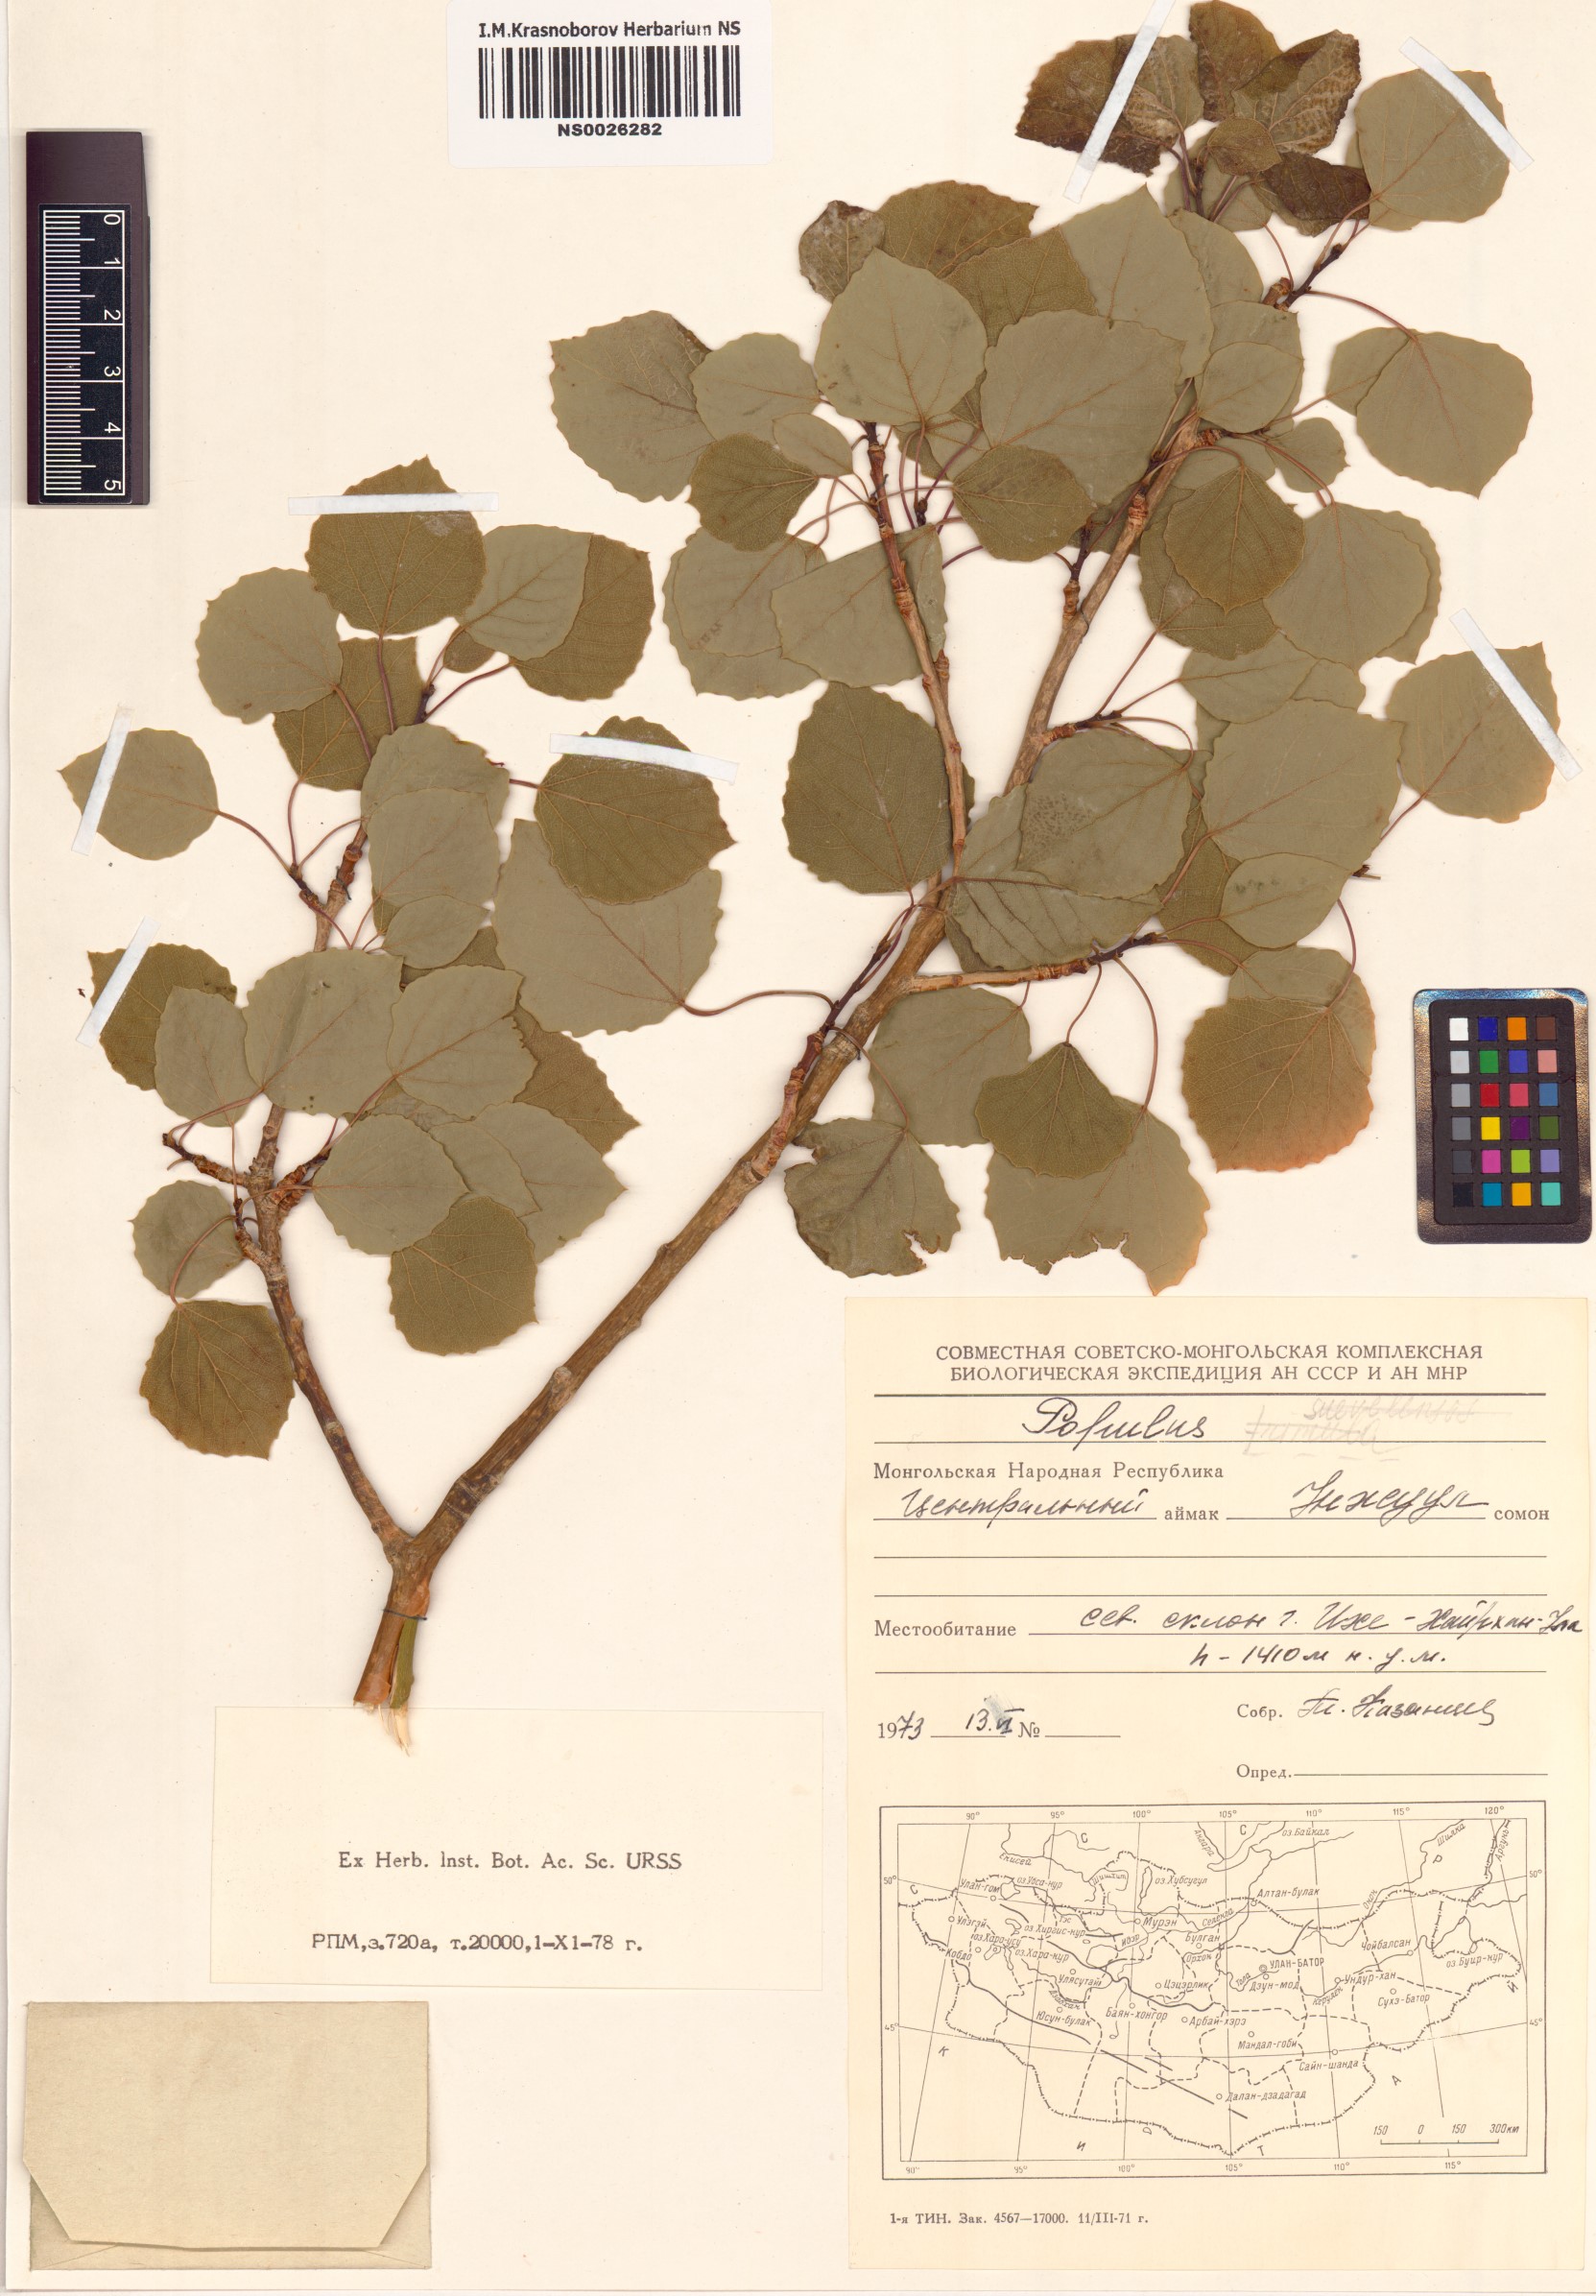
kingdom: Plantae
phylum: Tracheophyta
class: Magnoliopsida
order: Malpighiales
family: Salicaceae
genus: Populus
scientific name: Populus
